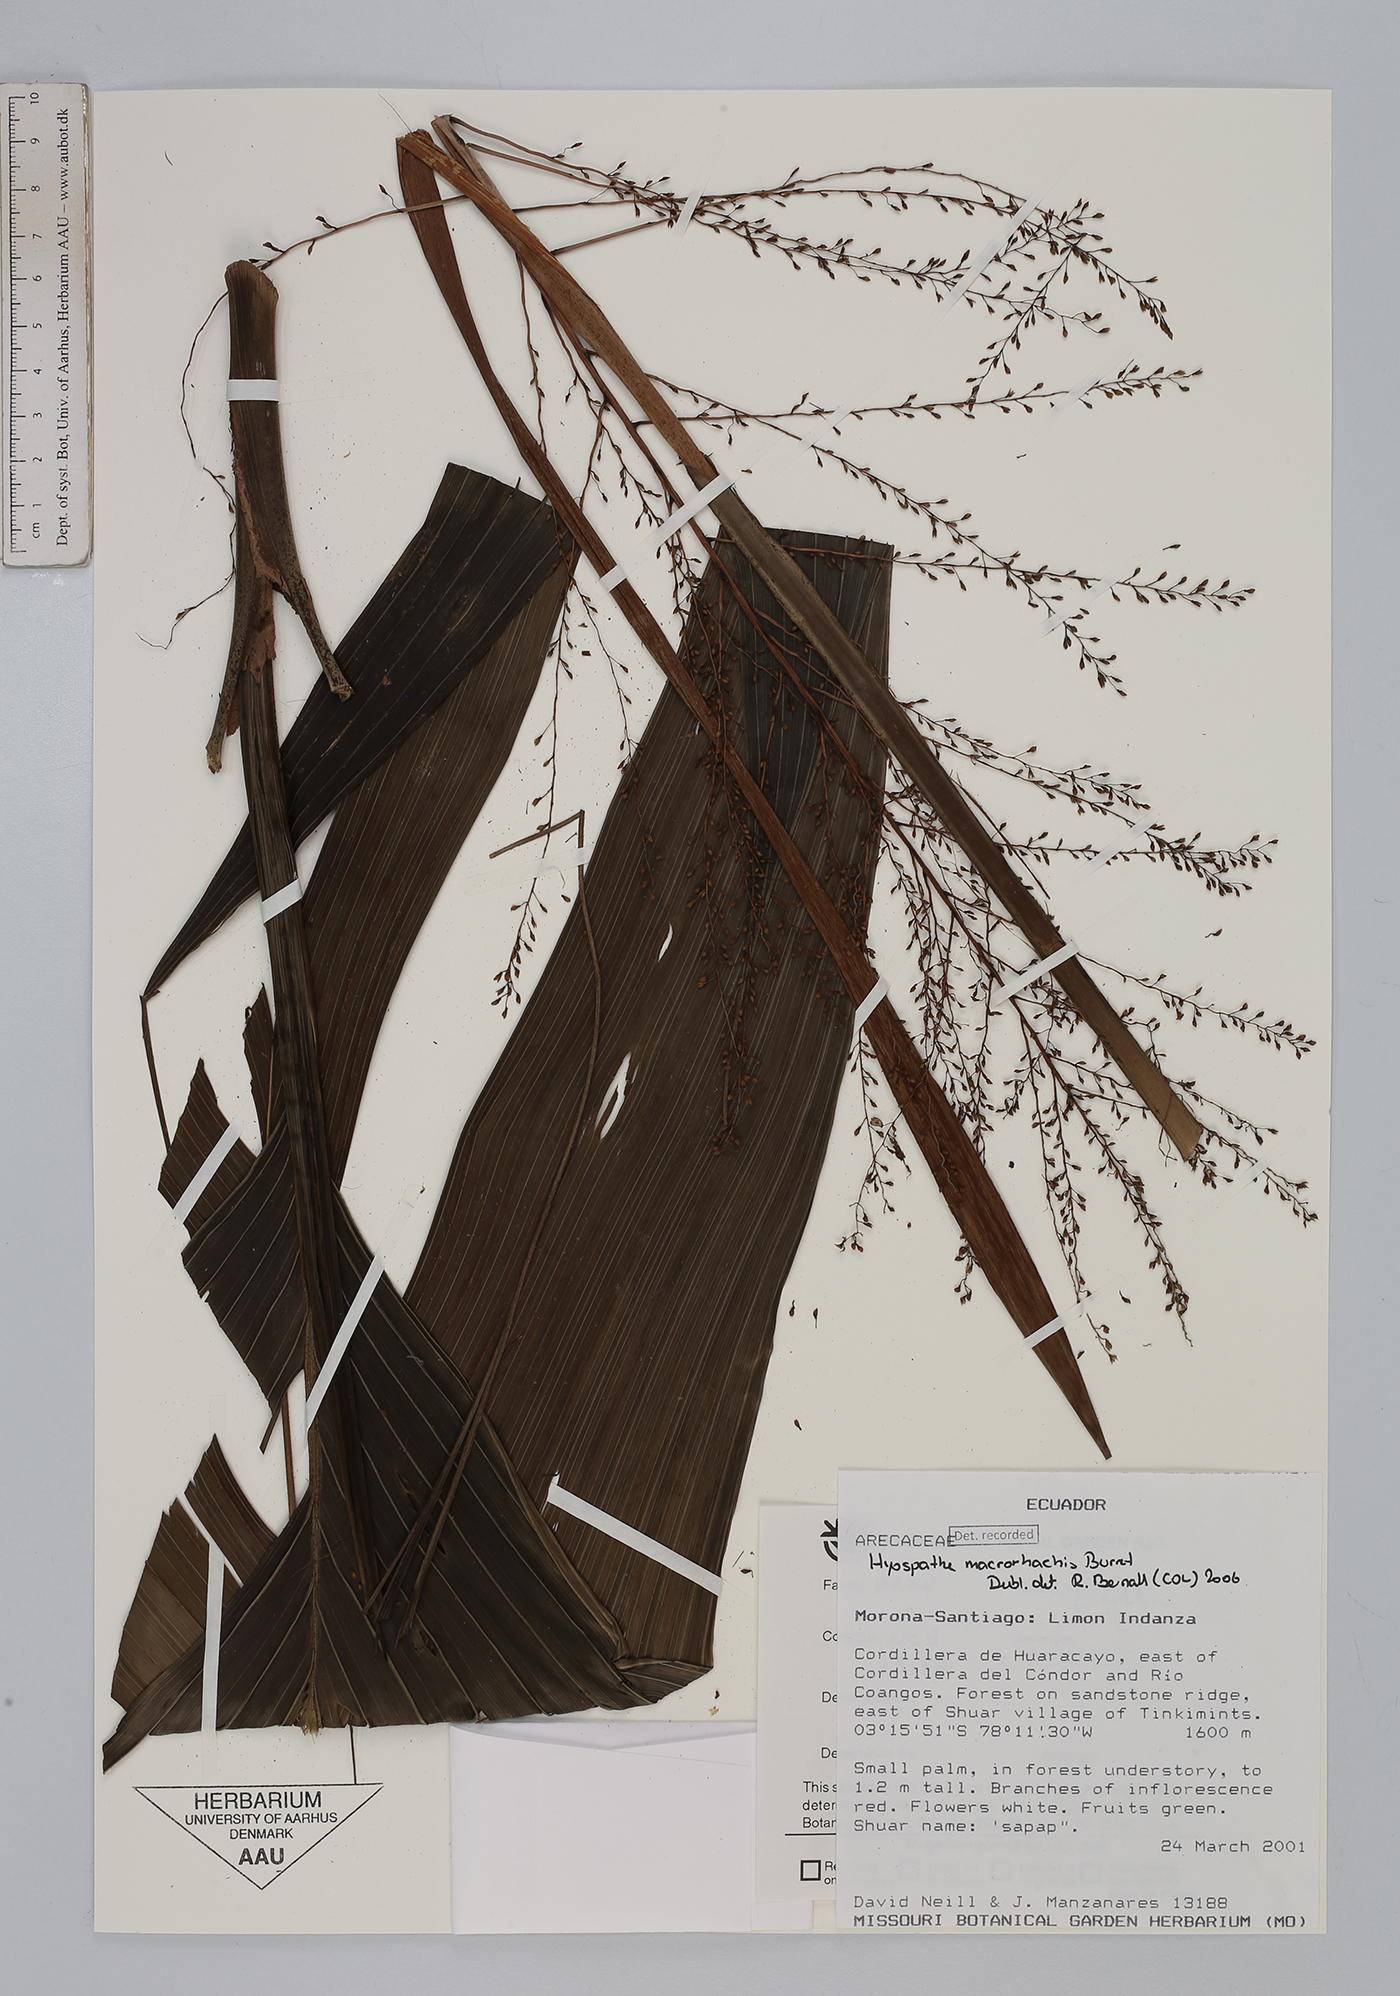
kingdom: Plantae
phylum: Tracheophyta
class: Liliopsida
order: Arecales
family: Arecaceae
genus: Hyospathe
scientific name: Hyospathe macrorhachis
